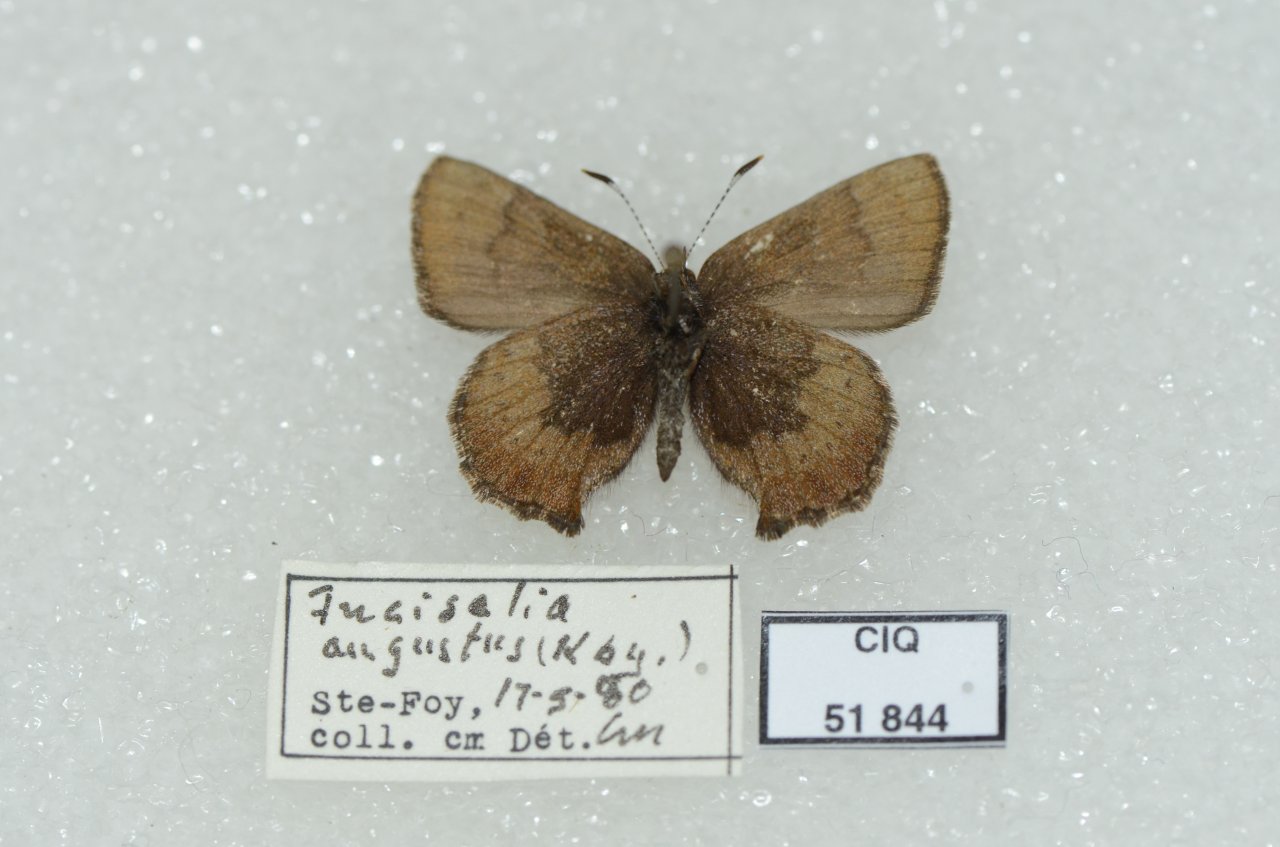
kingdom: Animalia
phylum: Arthropoda
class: Insecta
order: Lepidoptera
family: Lycaenidae
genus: Incisalia
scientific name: Incisalia irioides
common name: Brown Elfin
